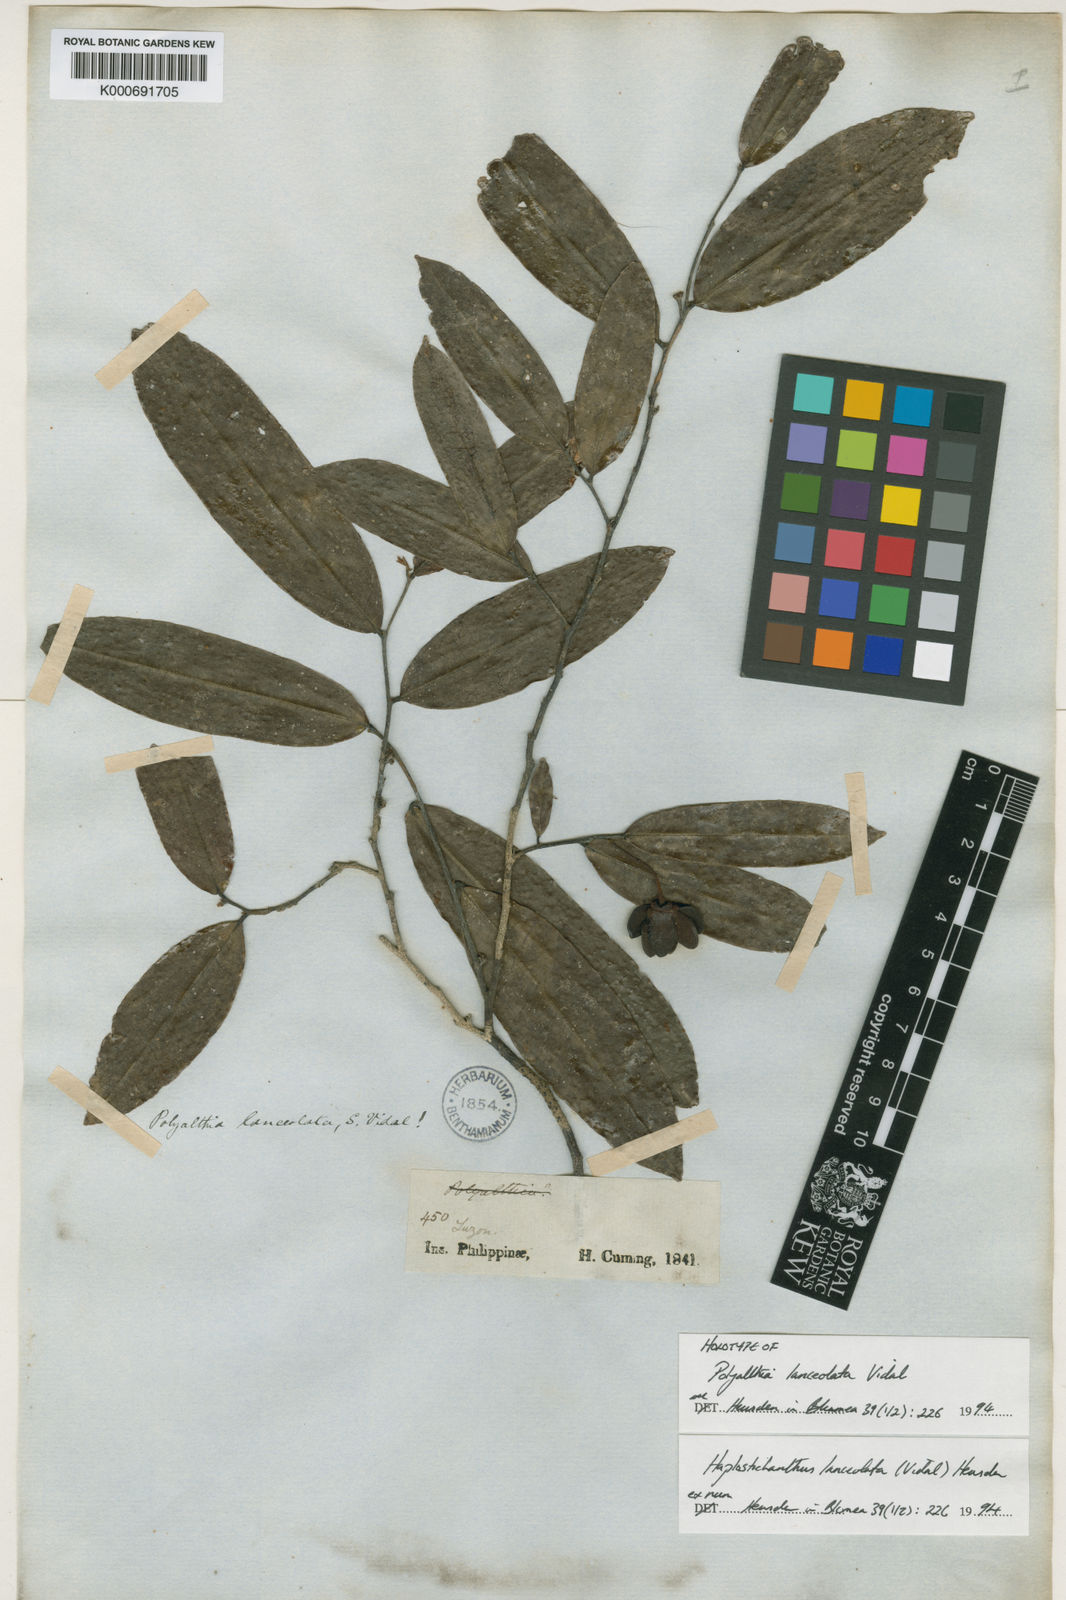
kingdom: Plantae
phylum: Tracheophyta
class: Magnoliopsida
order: Magnoliales
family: Annonaceae
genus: Papualthia
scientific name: Papualthia
